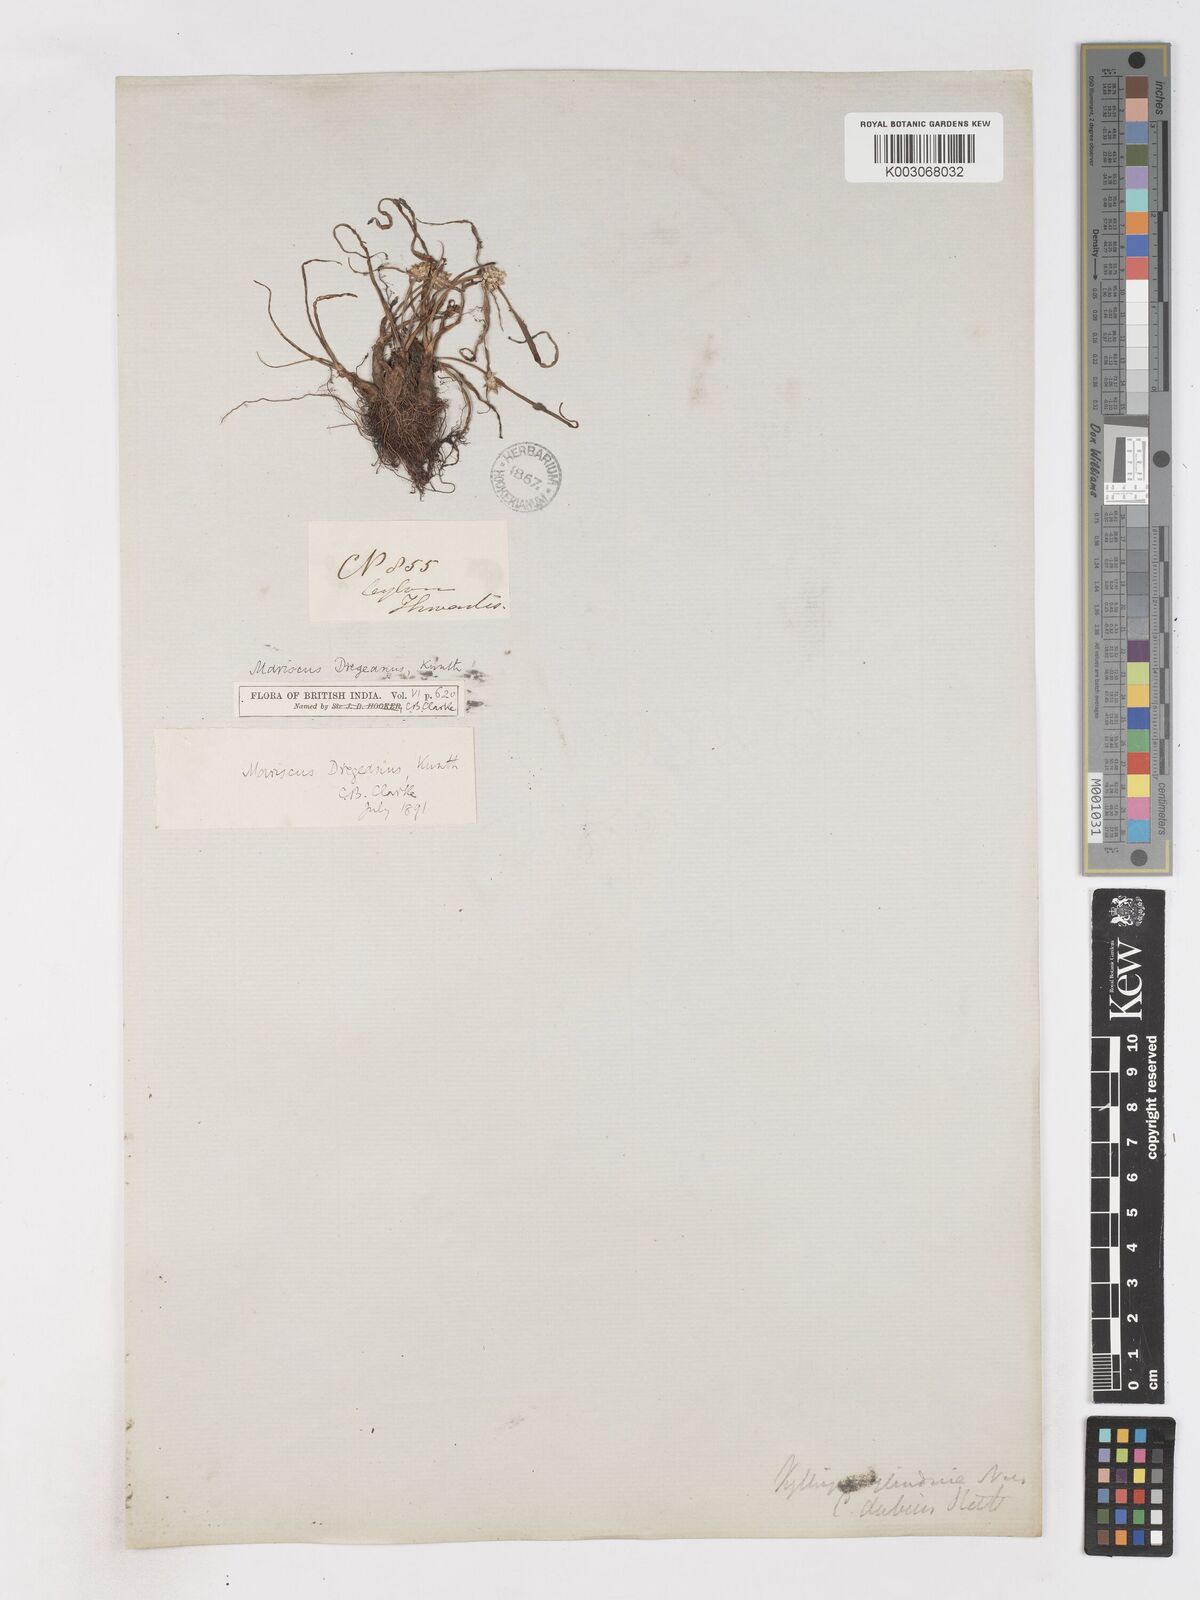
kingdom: Plantae
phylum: Tracheophyta
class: Liliopsida
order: Poales
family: Cyperaceae
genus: Cyperus
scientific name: Cyperus dubius
